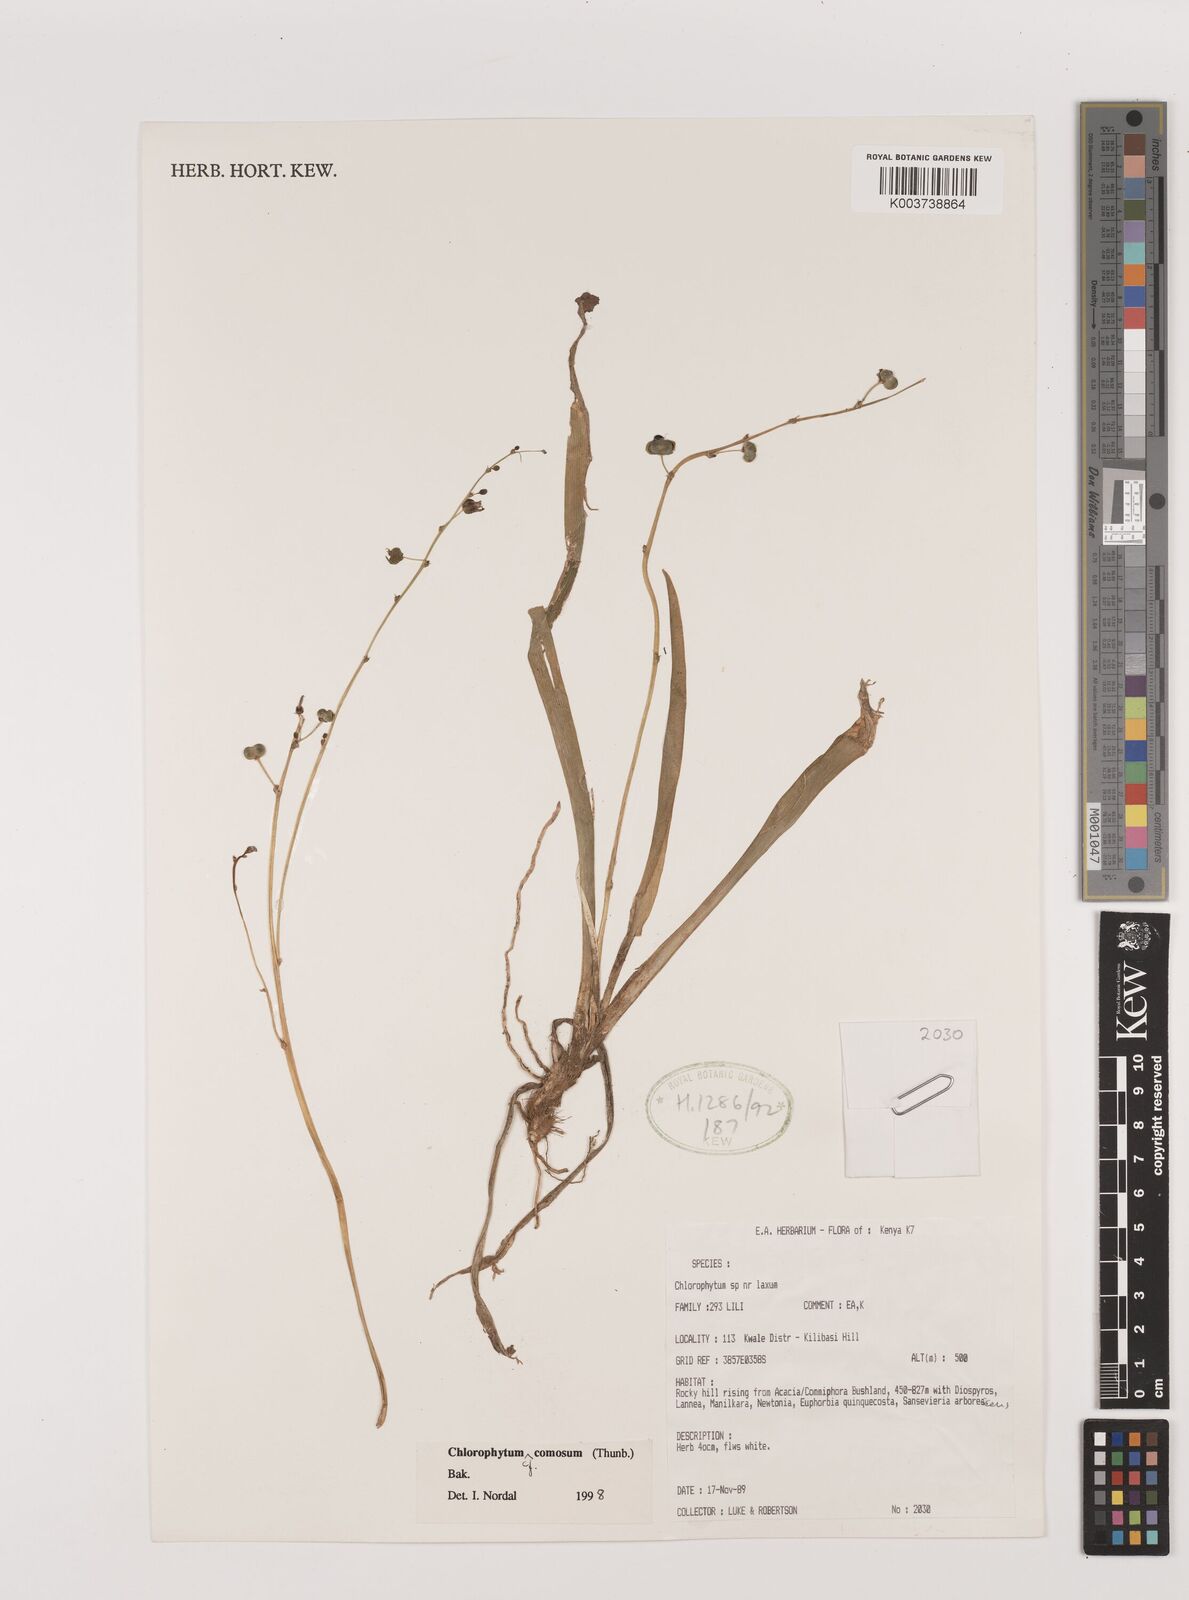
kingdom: Plantae
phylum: Tracheophyta
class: Liliopsida
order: Asparagales
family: Asparagaceae
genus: Chlorophytum
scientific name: Chlorophytum comosum
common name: Spider plant
